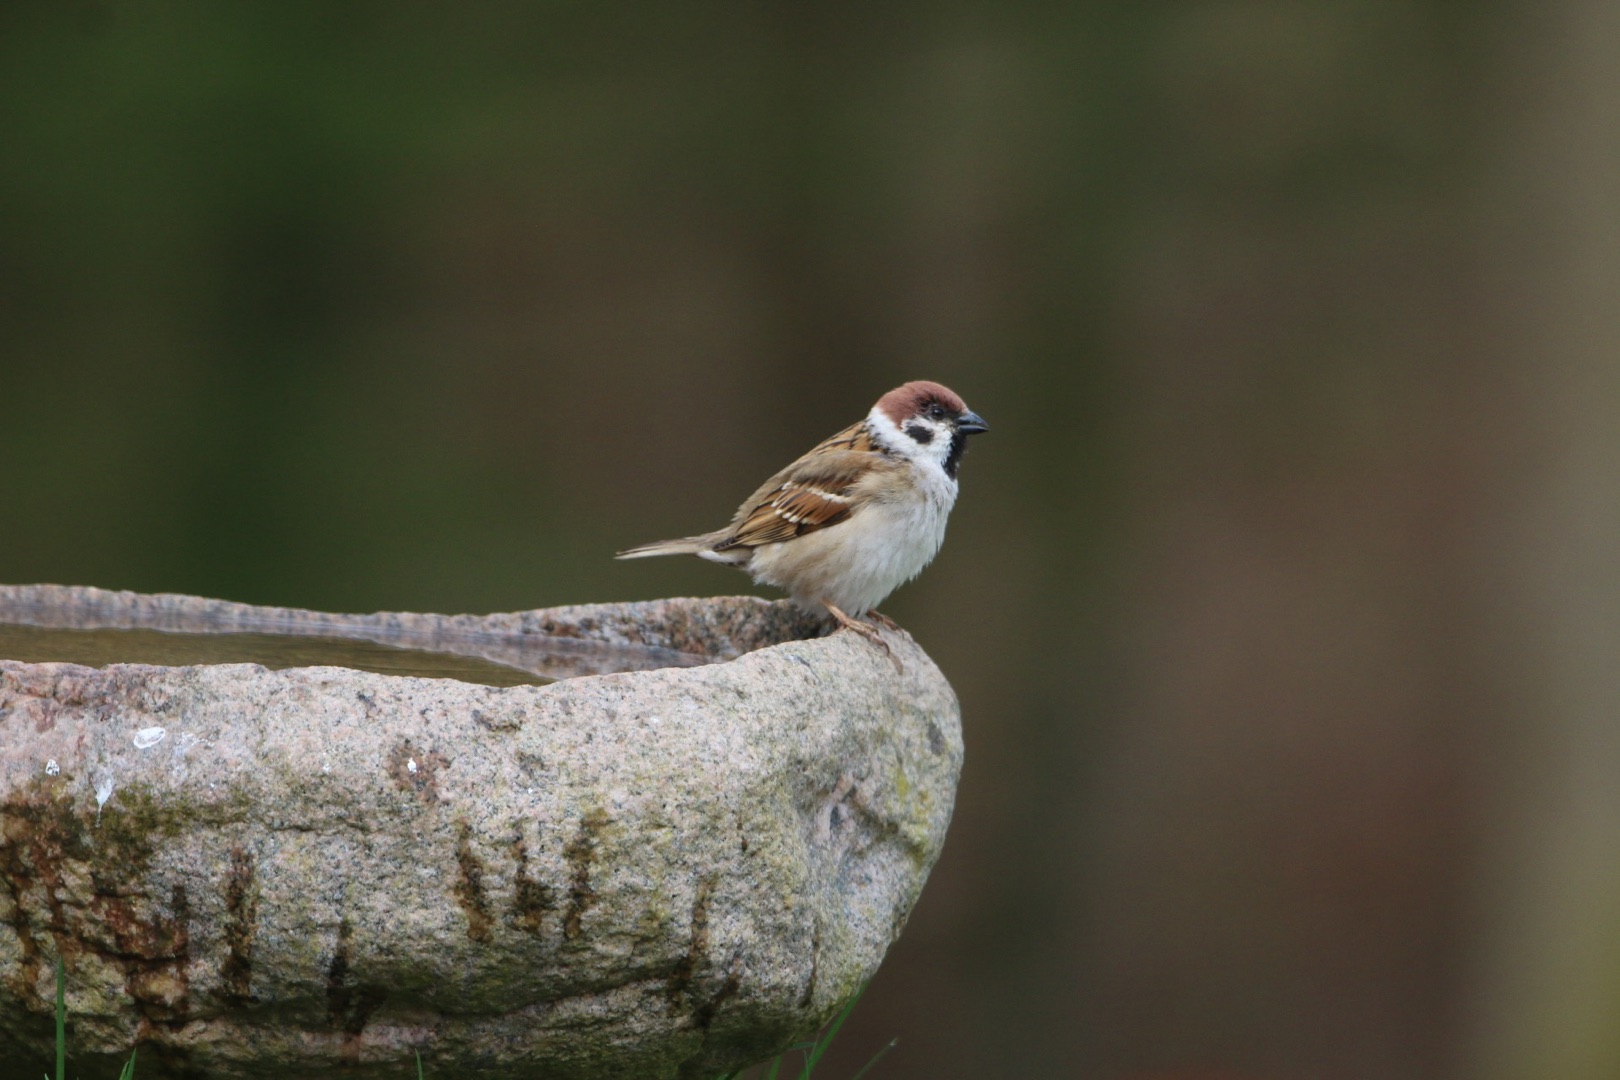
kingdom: Animalia
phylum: Chordata
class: Aves
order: Passeriformes
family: Passeridae
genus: Passer
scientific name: Passer montanus
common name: Skovspurv
